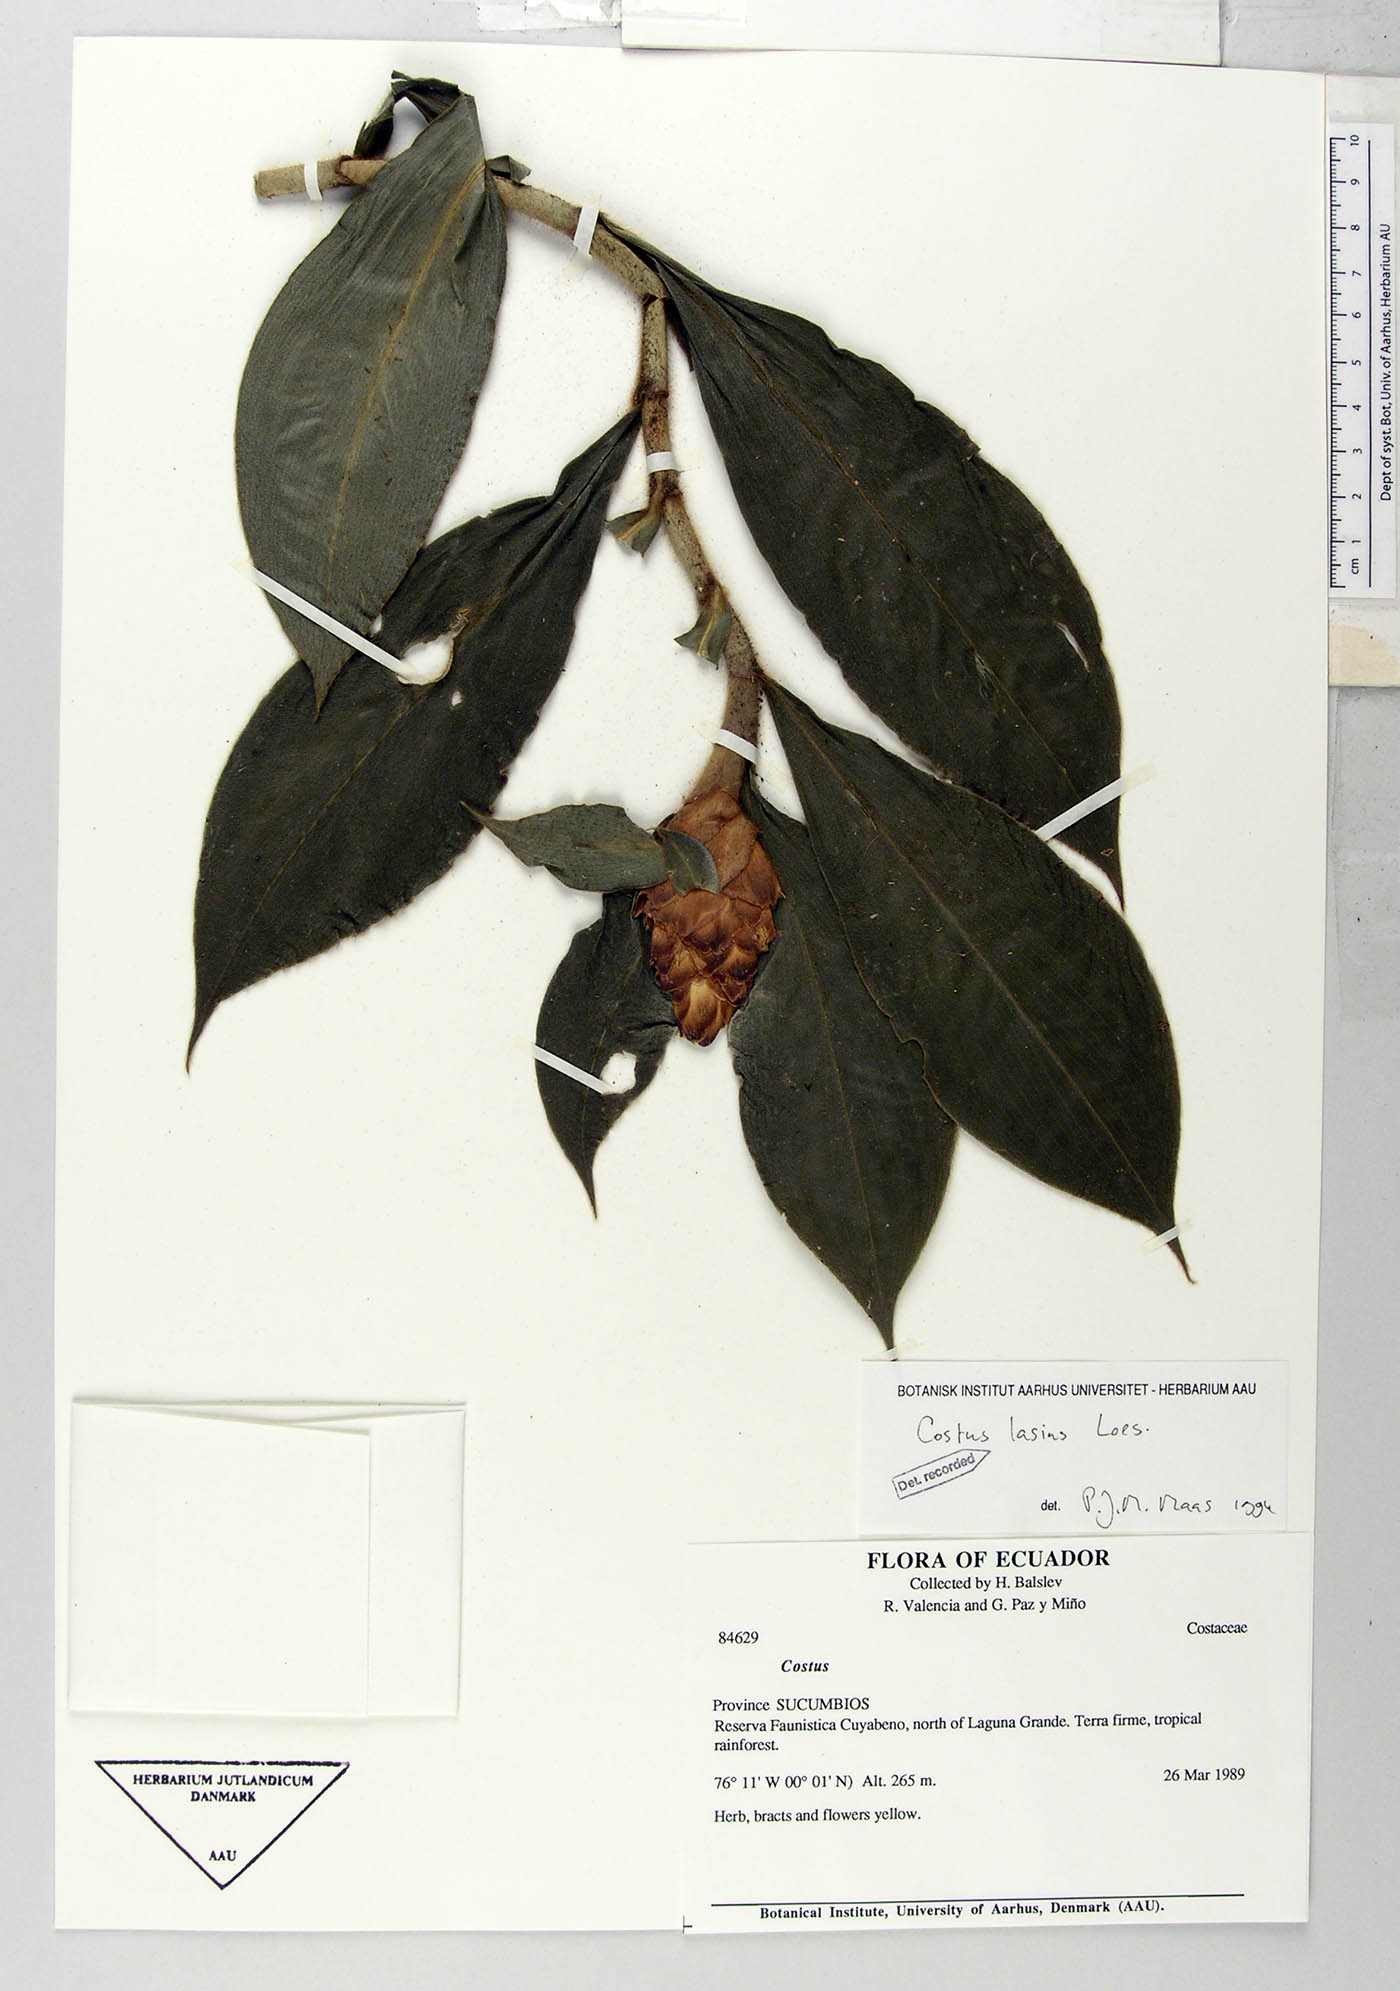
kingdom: Plantae
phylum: Tracheophyta
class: Liliopsida
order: Zingiberales
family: Costaceae
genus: Costus
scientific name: Costus lasius
